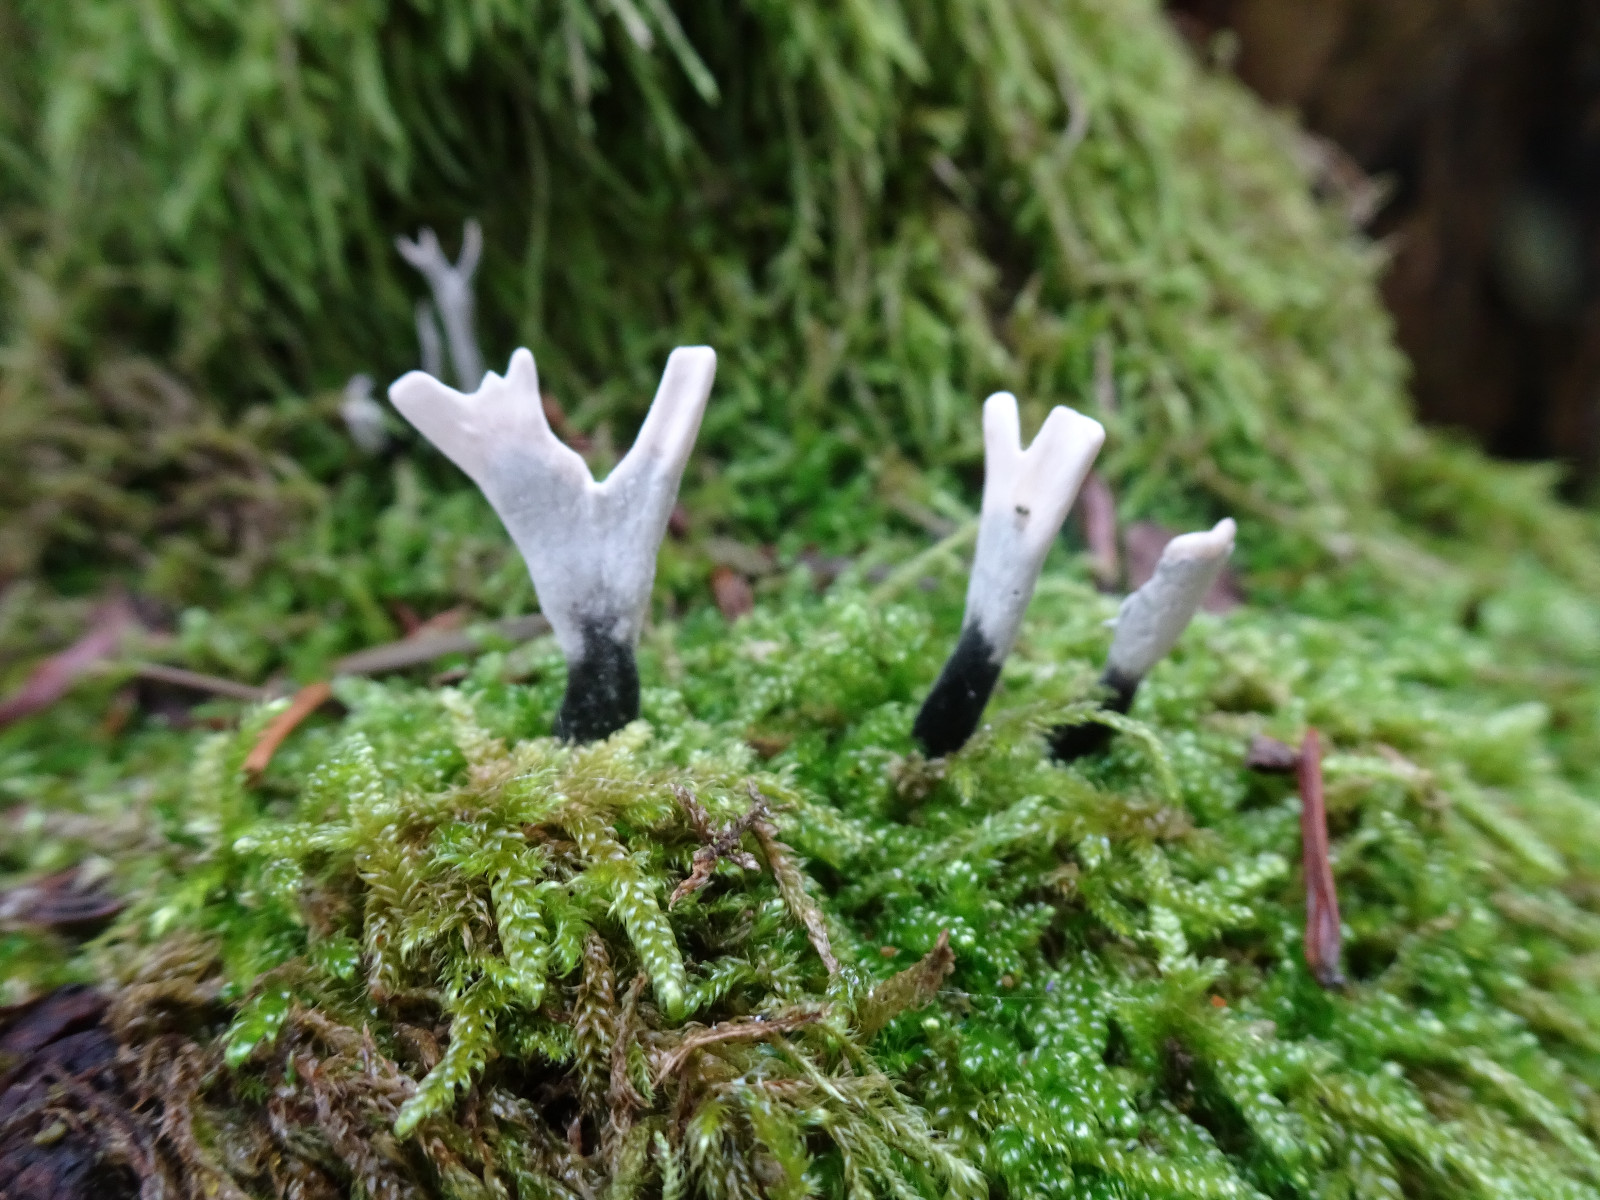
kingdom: Fungi
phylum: Ascomycota
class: Sordariomycetes
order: Xylariales
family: Xylariaceae
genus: Xylaria
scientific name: Xylaria hypoxylon
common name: grenet stødsvamp
